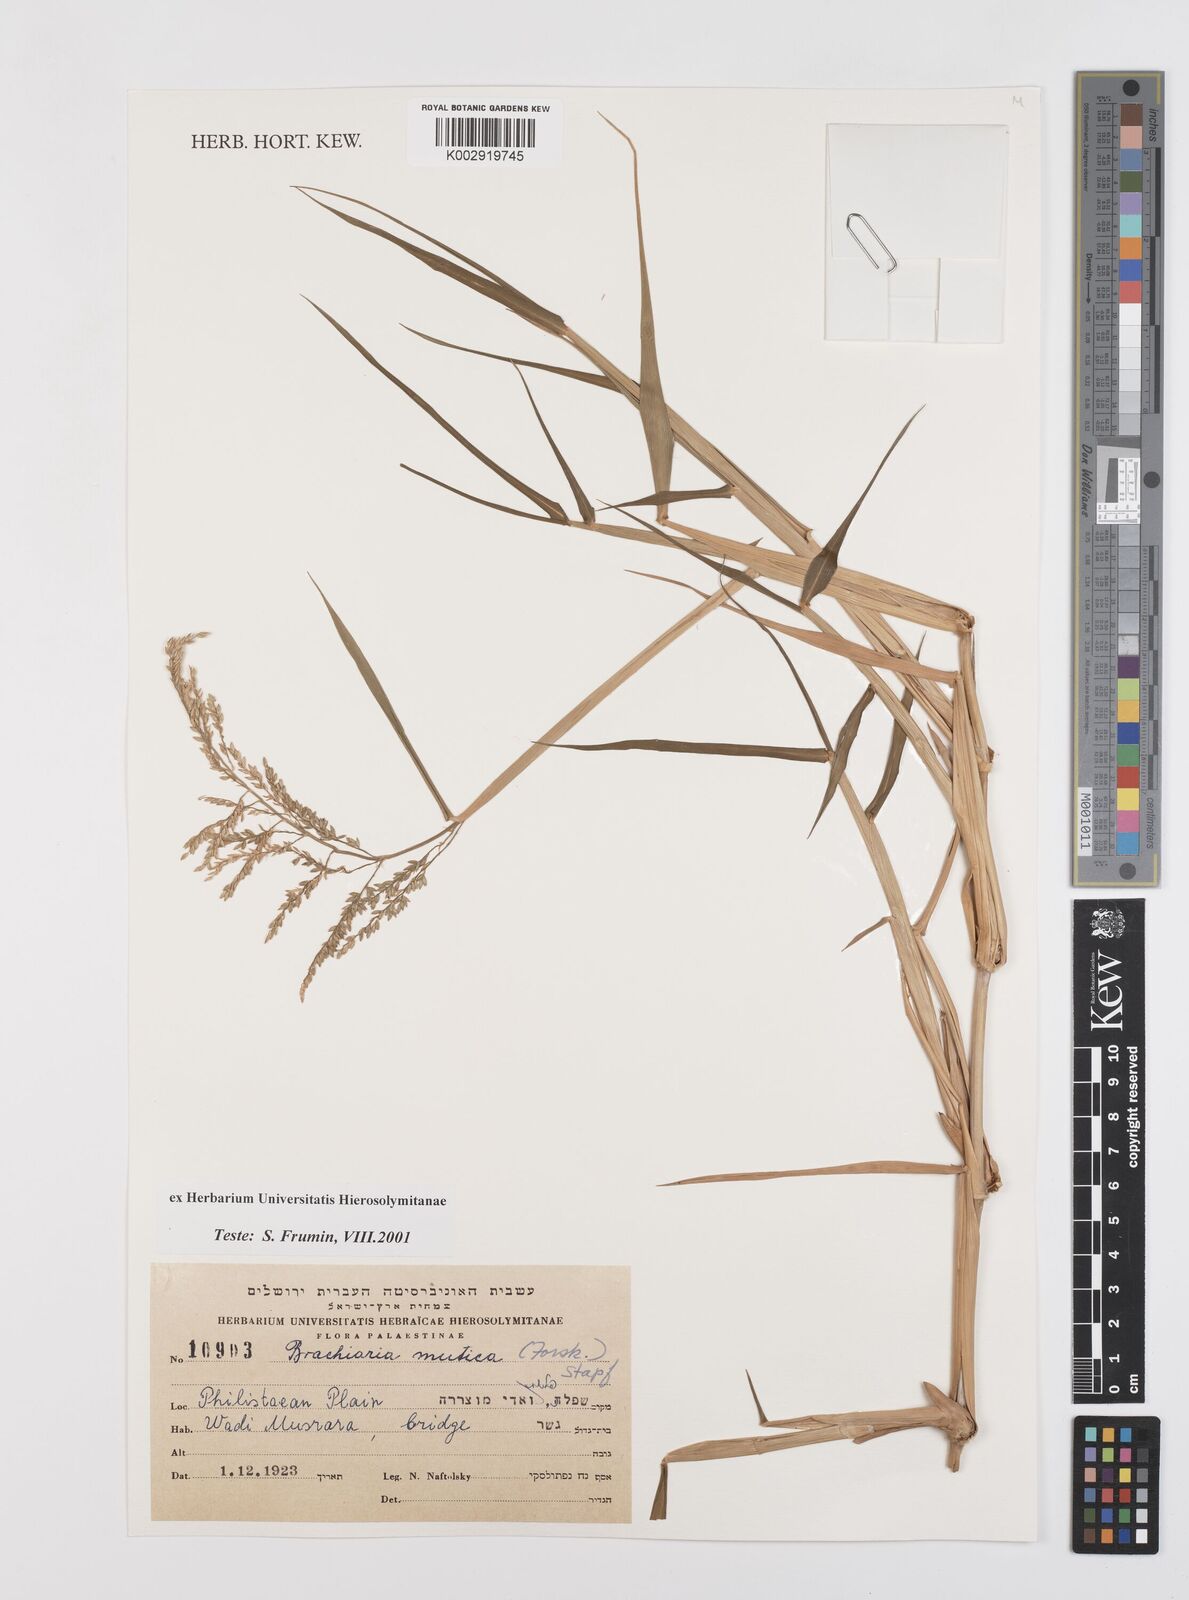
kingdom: Plantae
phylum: Tracheophyta
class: Liliopsida
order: Poales
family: Poaceae
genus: Urochloa
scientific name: Urochloa mutica
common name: Para grass
